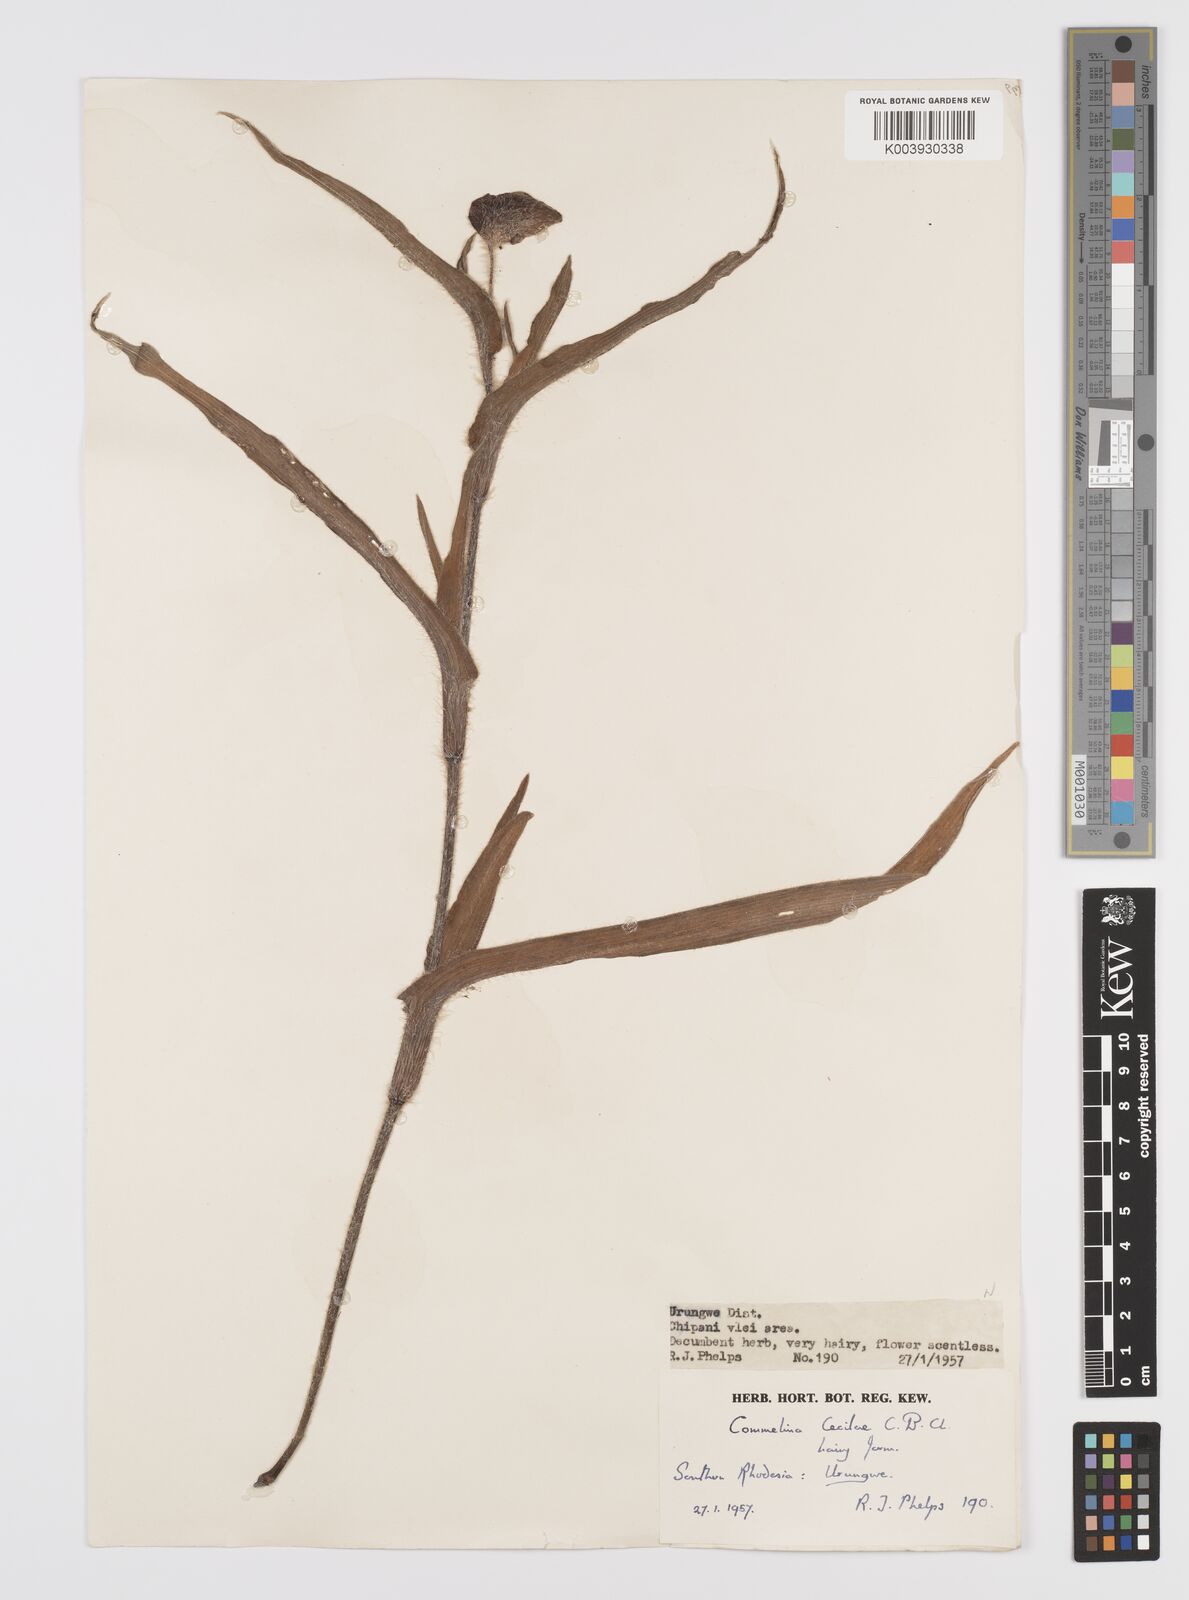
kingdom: Plantae
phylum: Tracheophyta
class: Liliopsida
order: Commelinales
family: Commelinaceae
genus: Commelina
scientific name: Commelina cecilae
